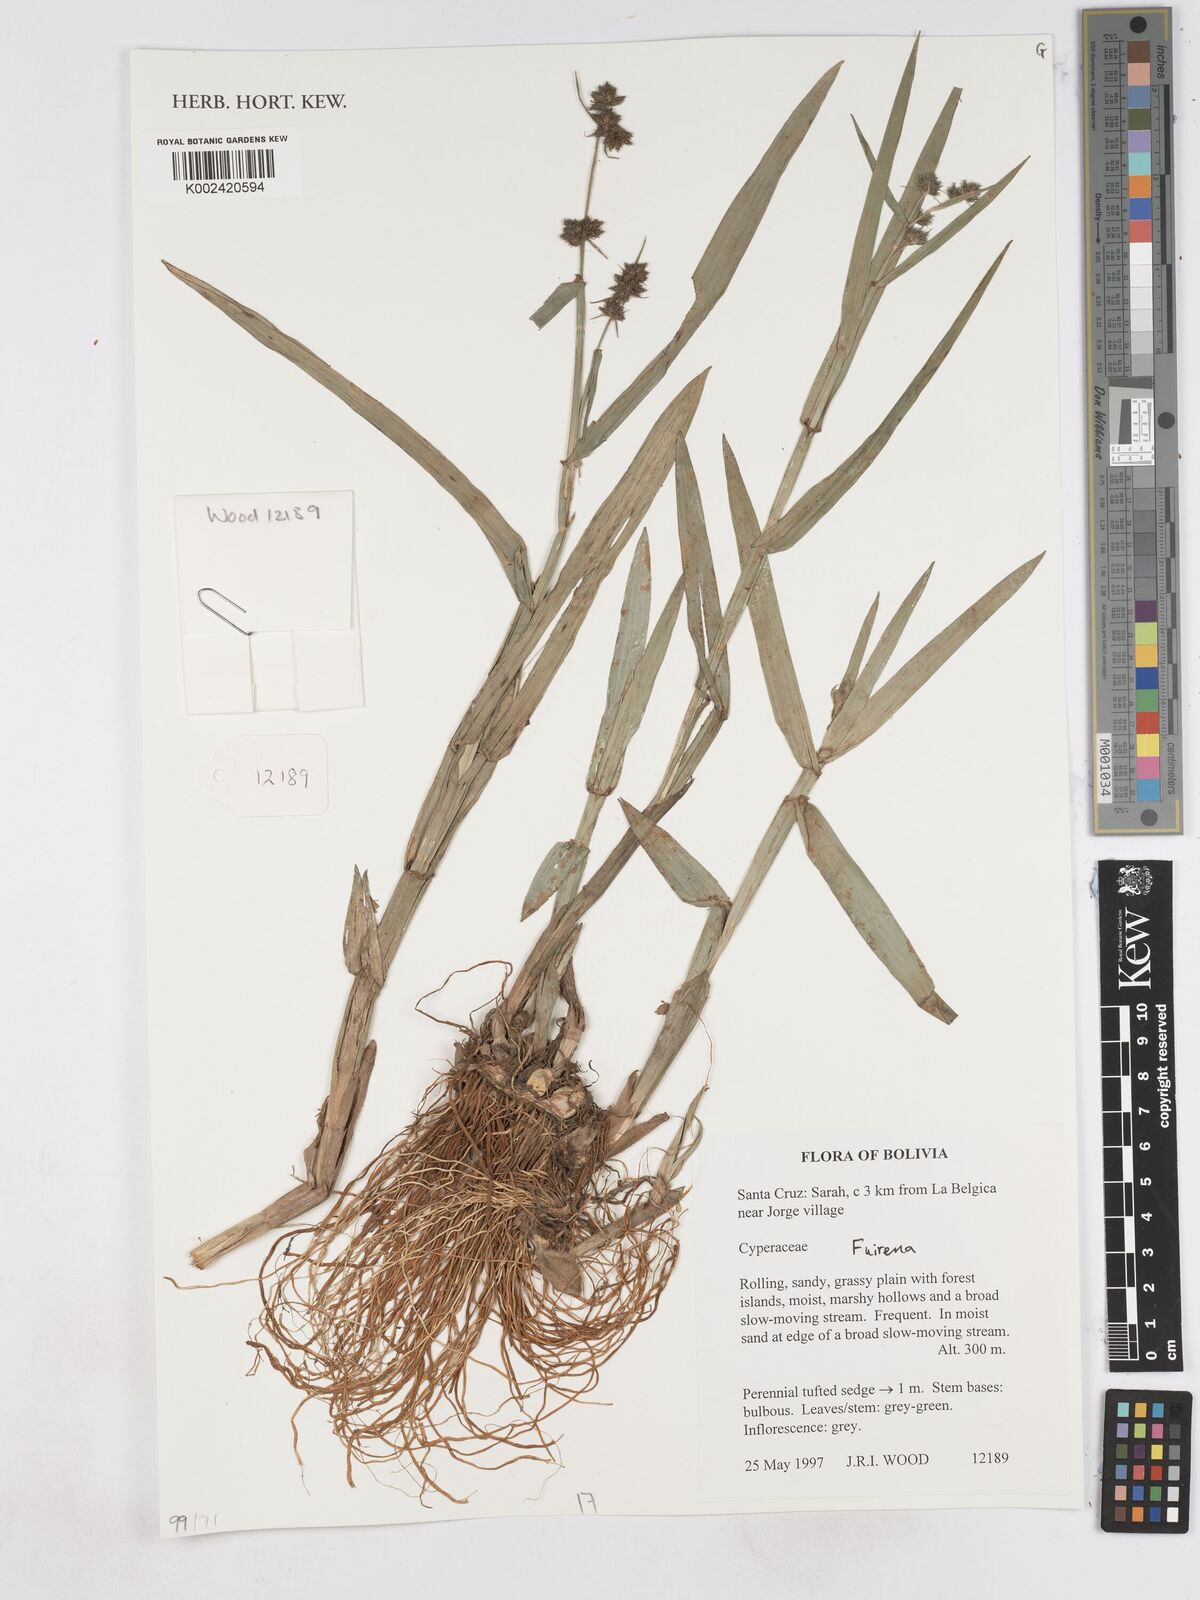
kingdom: Plantae
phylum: Tracheophyta
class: Liliopsida
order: Poales
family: Cyperaceae
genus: Fuirena
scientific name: Fuirena
